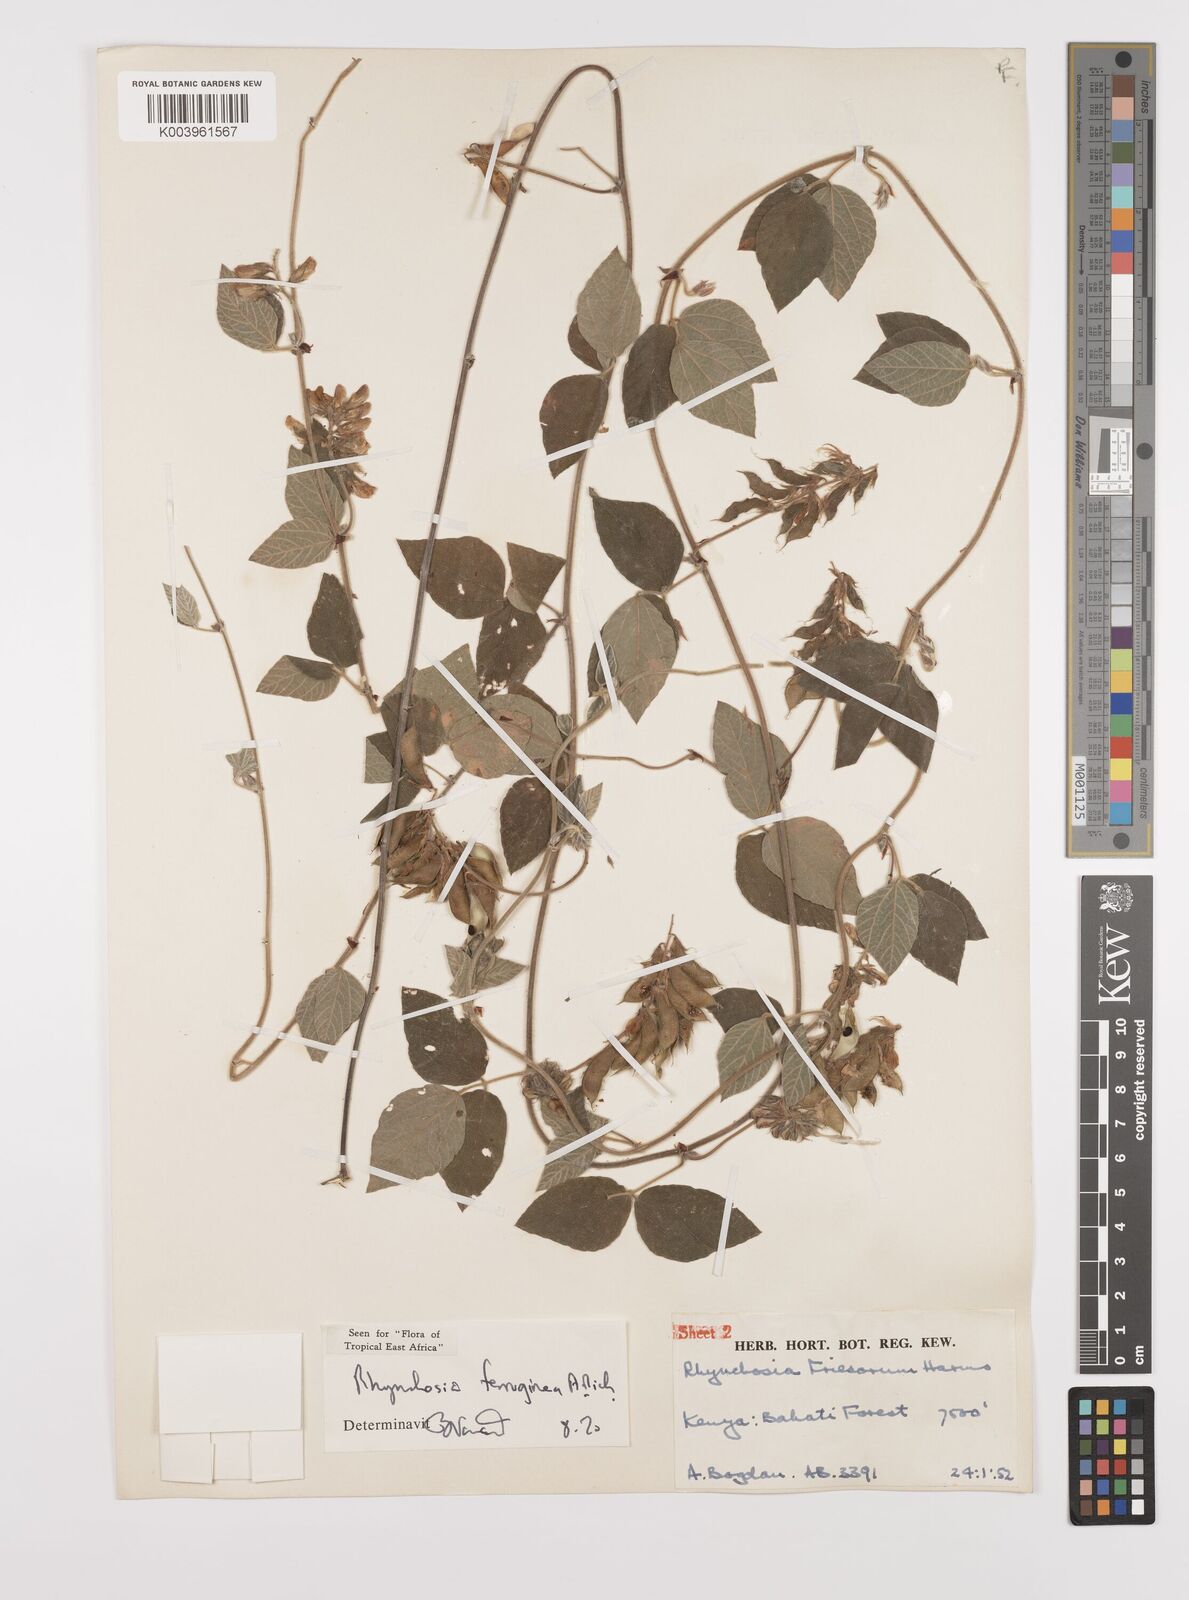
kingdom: Plantae
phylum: Tracheophyta
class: Magnoliopsida
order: Fabales
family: Fabaceae
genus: Rhynchosia
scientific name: Rhynchosia ferruginea
